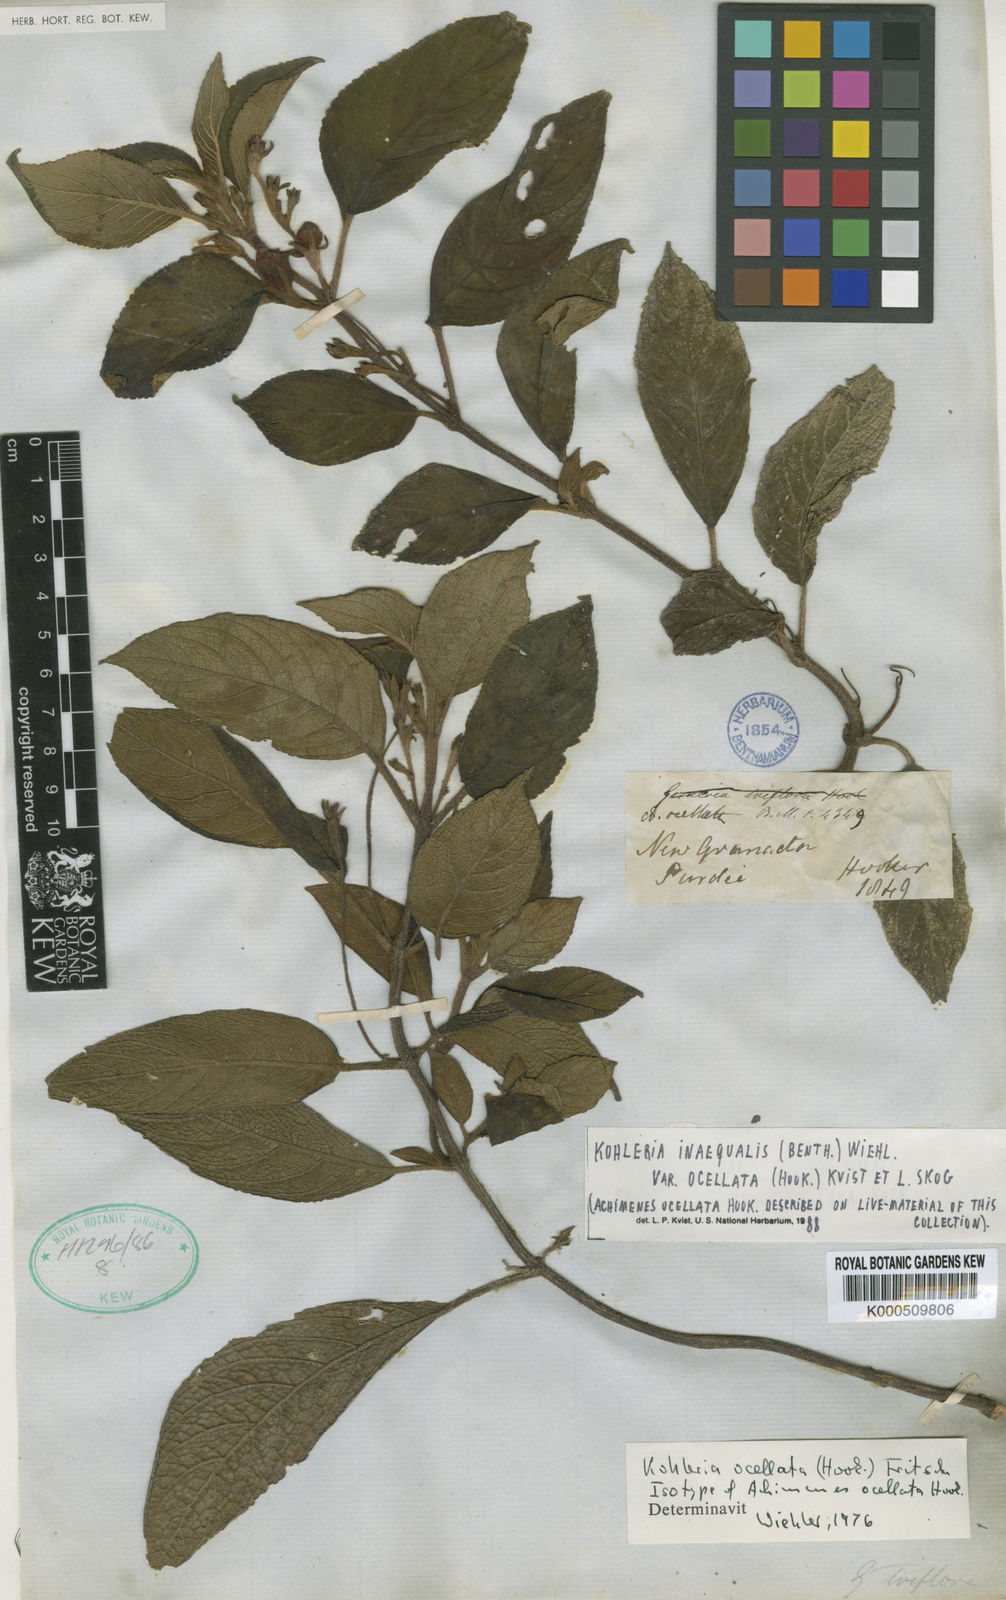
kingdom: Plantae
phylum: Tracheophyta
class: Magnoliopsida
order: Lamiales
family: Gesneriaceae
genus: Kohleria
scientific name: Kohleria inaequalis
